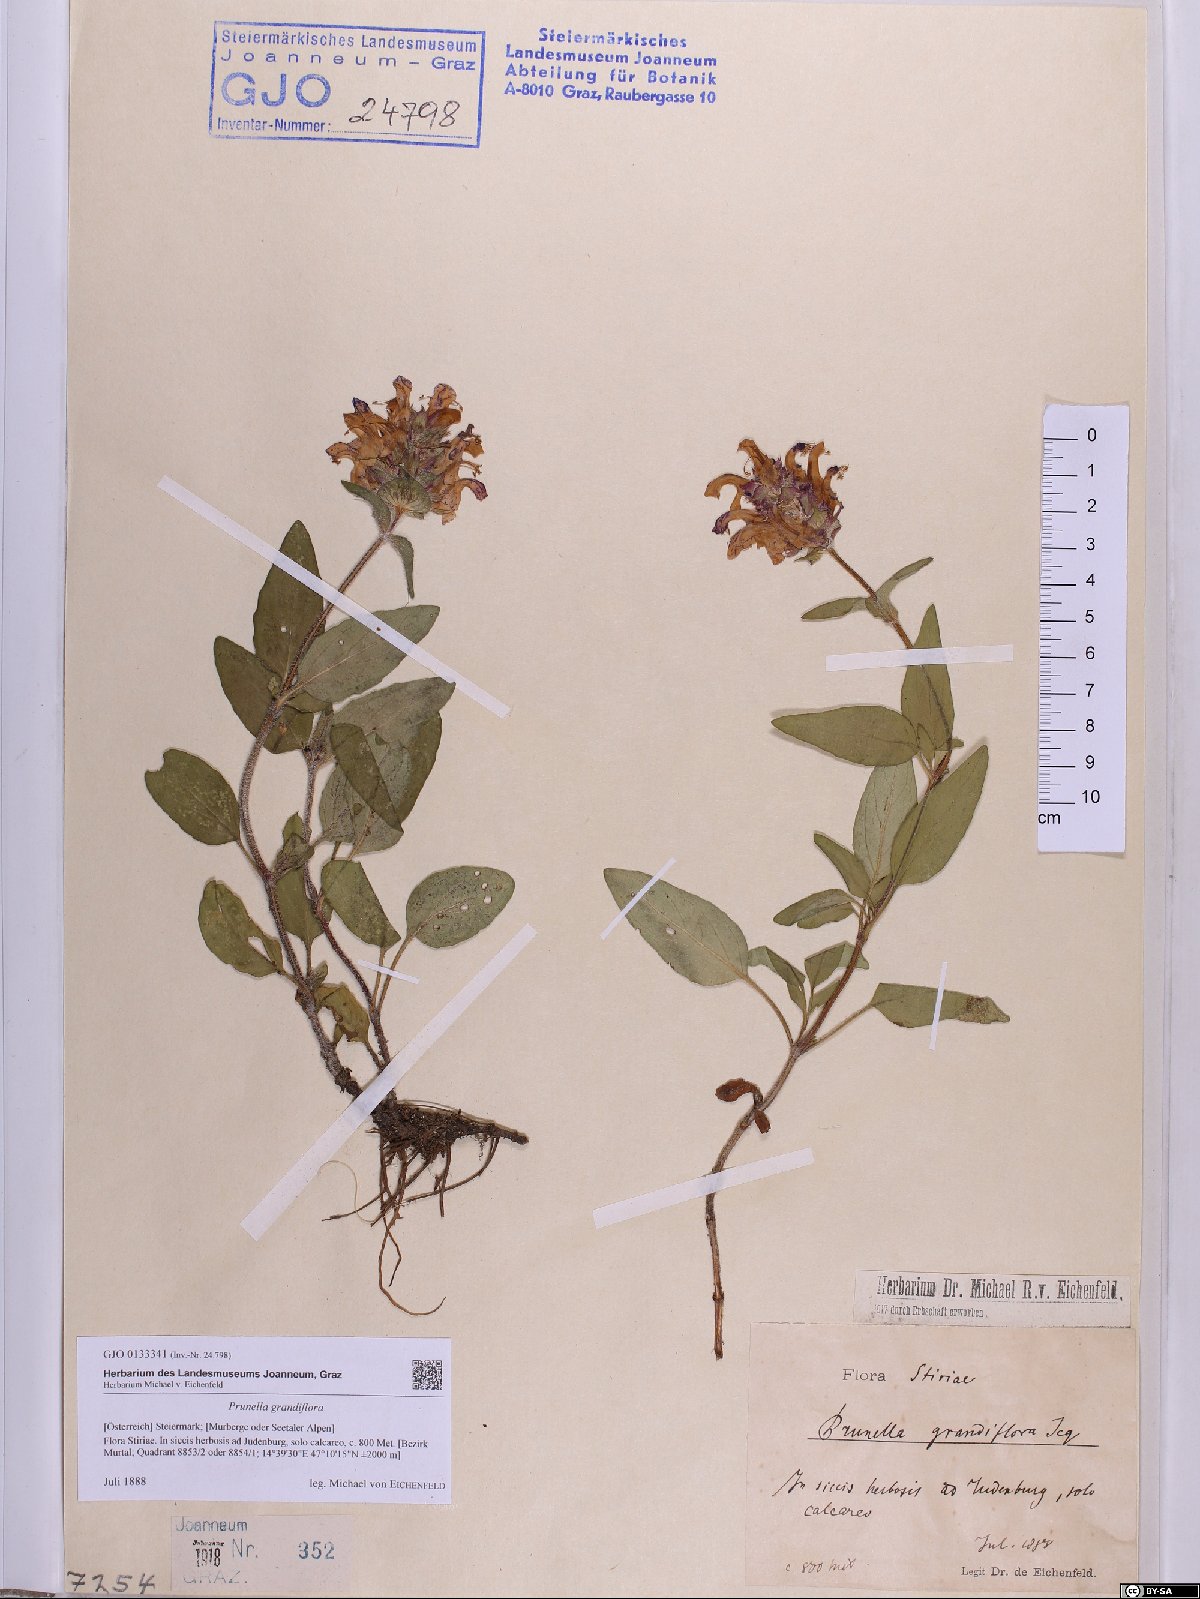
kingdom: Plantae
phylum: Tracheophyta
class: Magnoliopsida
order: Lamiales
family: Lamiaceae
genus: Prunella
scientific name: Prunella grandiflora
